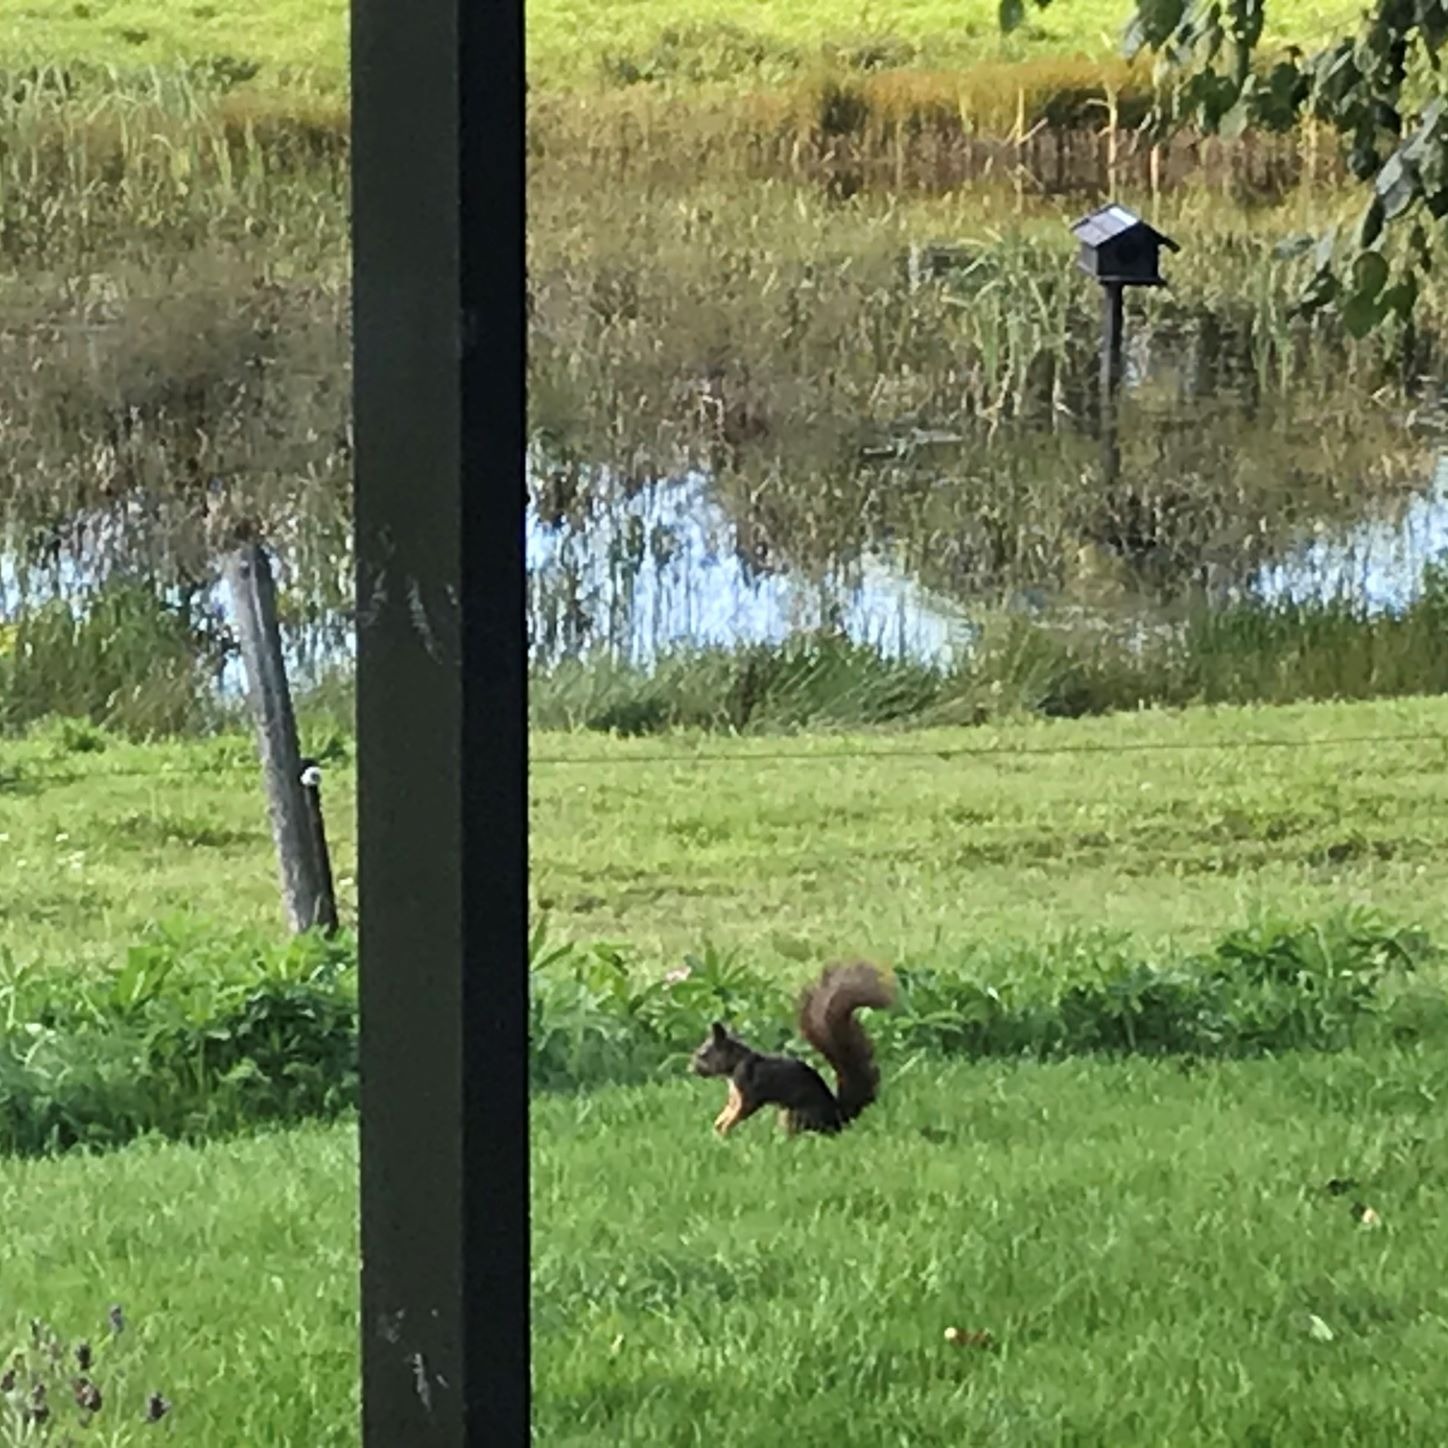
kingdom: Animalia
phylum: Chordata
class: Mammalia
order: Rodentia
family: Sciuridae
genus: Sciurus
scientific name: Sciurus vulgaris
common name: Egern
